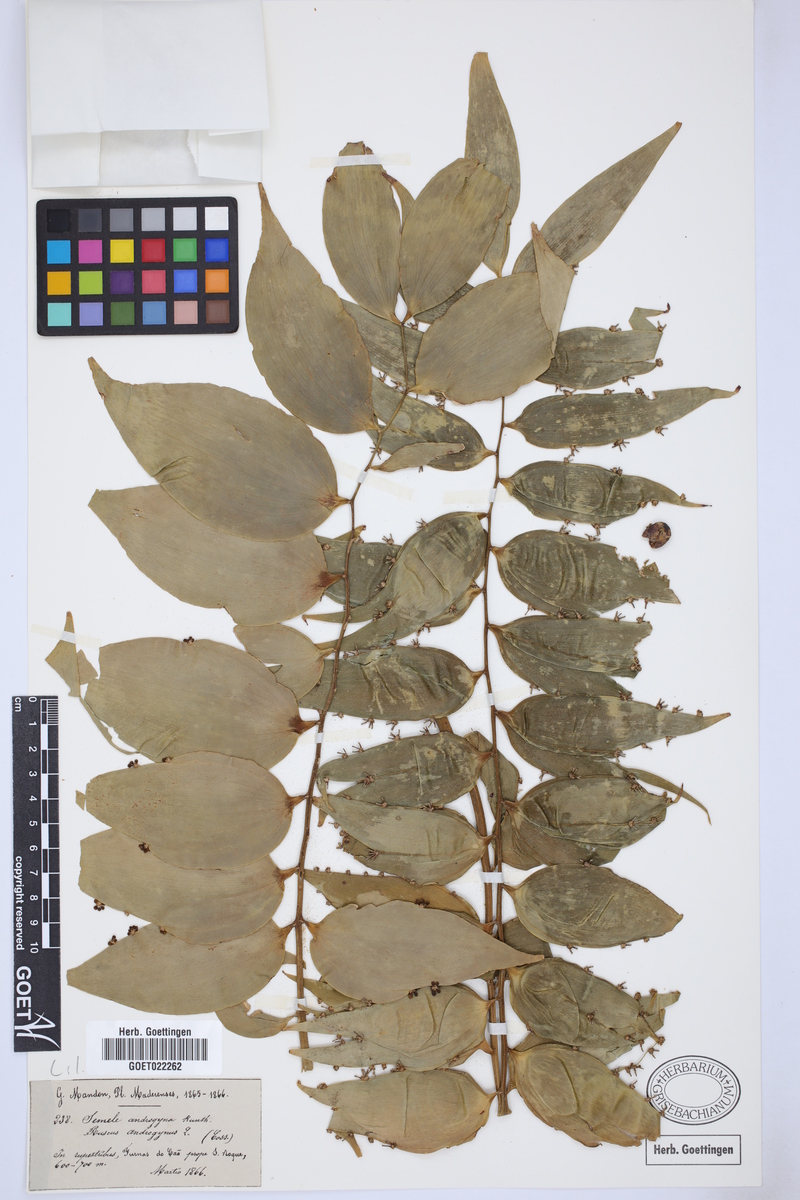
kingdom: Plantae
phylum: Tracheophyta
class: Liliopsida
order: Asparagales
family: Asparagaceae
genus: Semele
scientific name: Semele androgyna
